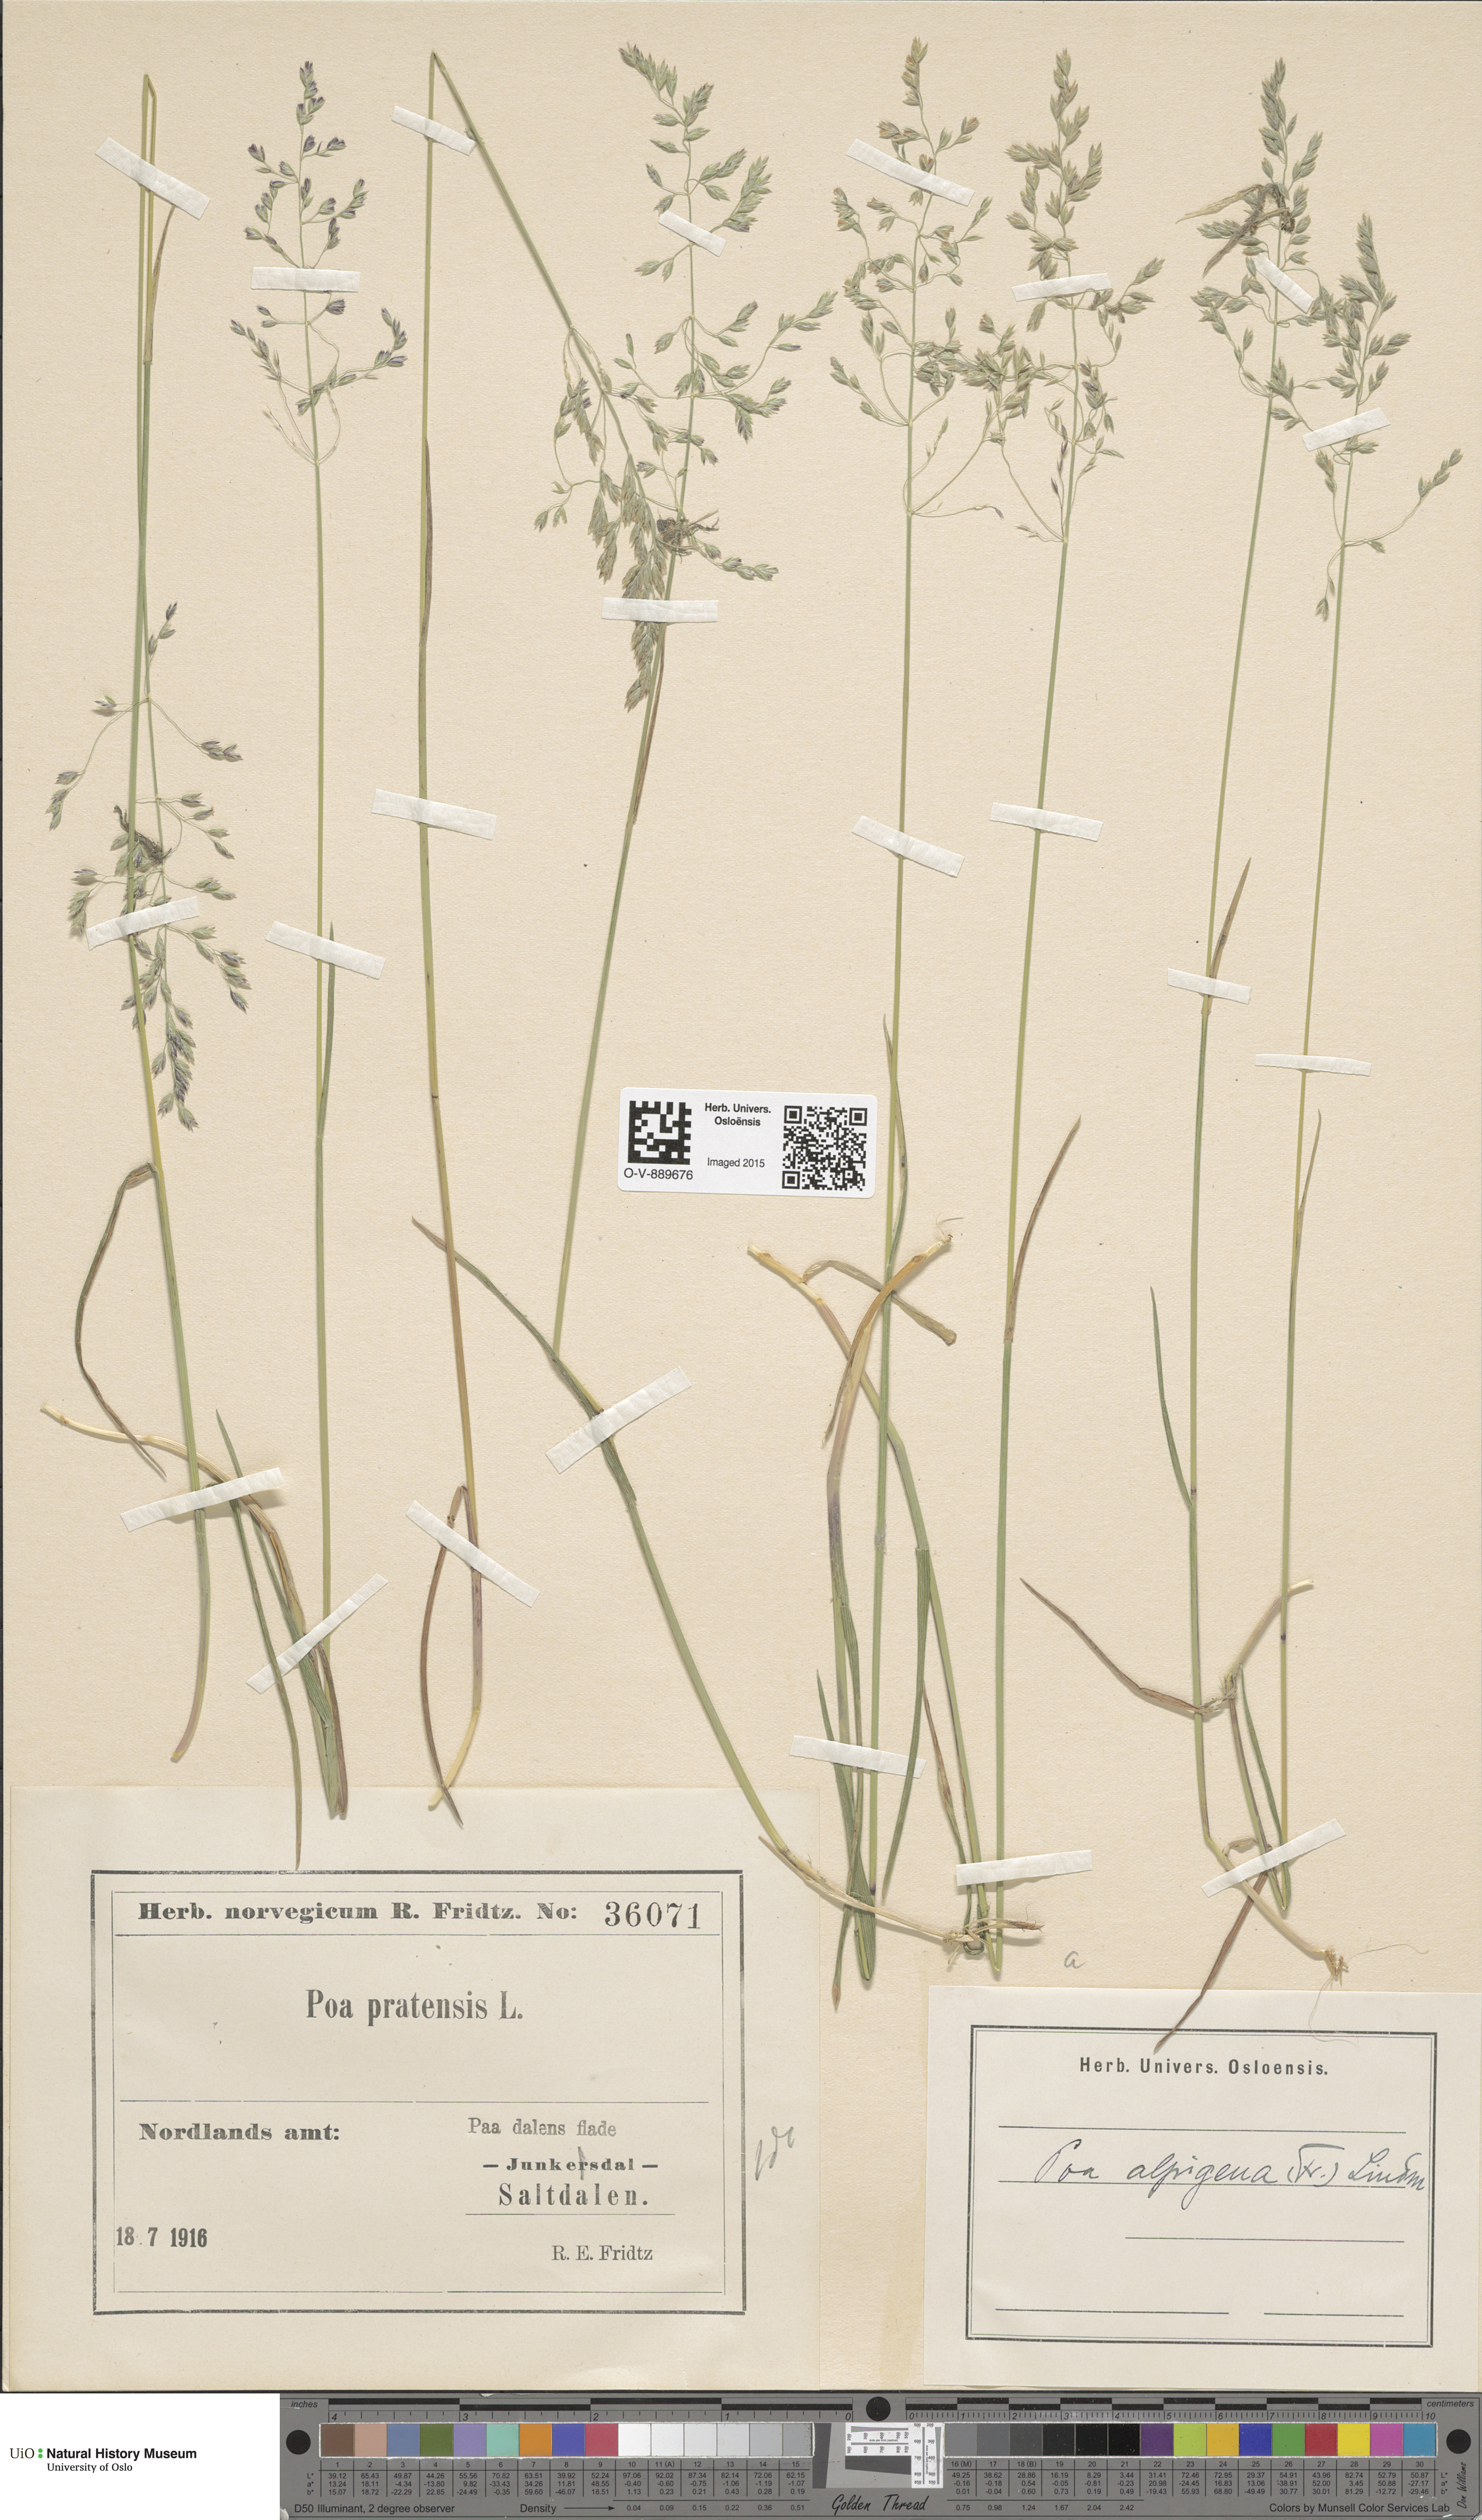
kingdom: Plantae
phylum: Tracheophyta
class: Liliopsida
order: Poales
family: Poaceae
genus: Poa
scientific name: Poa alpigena
